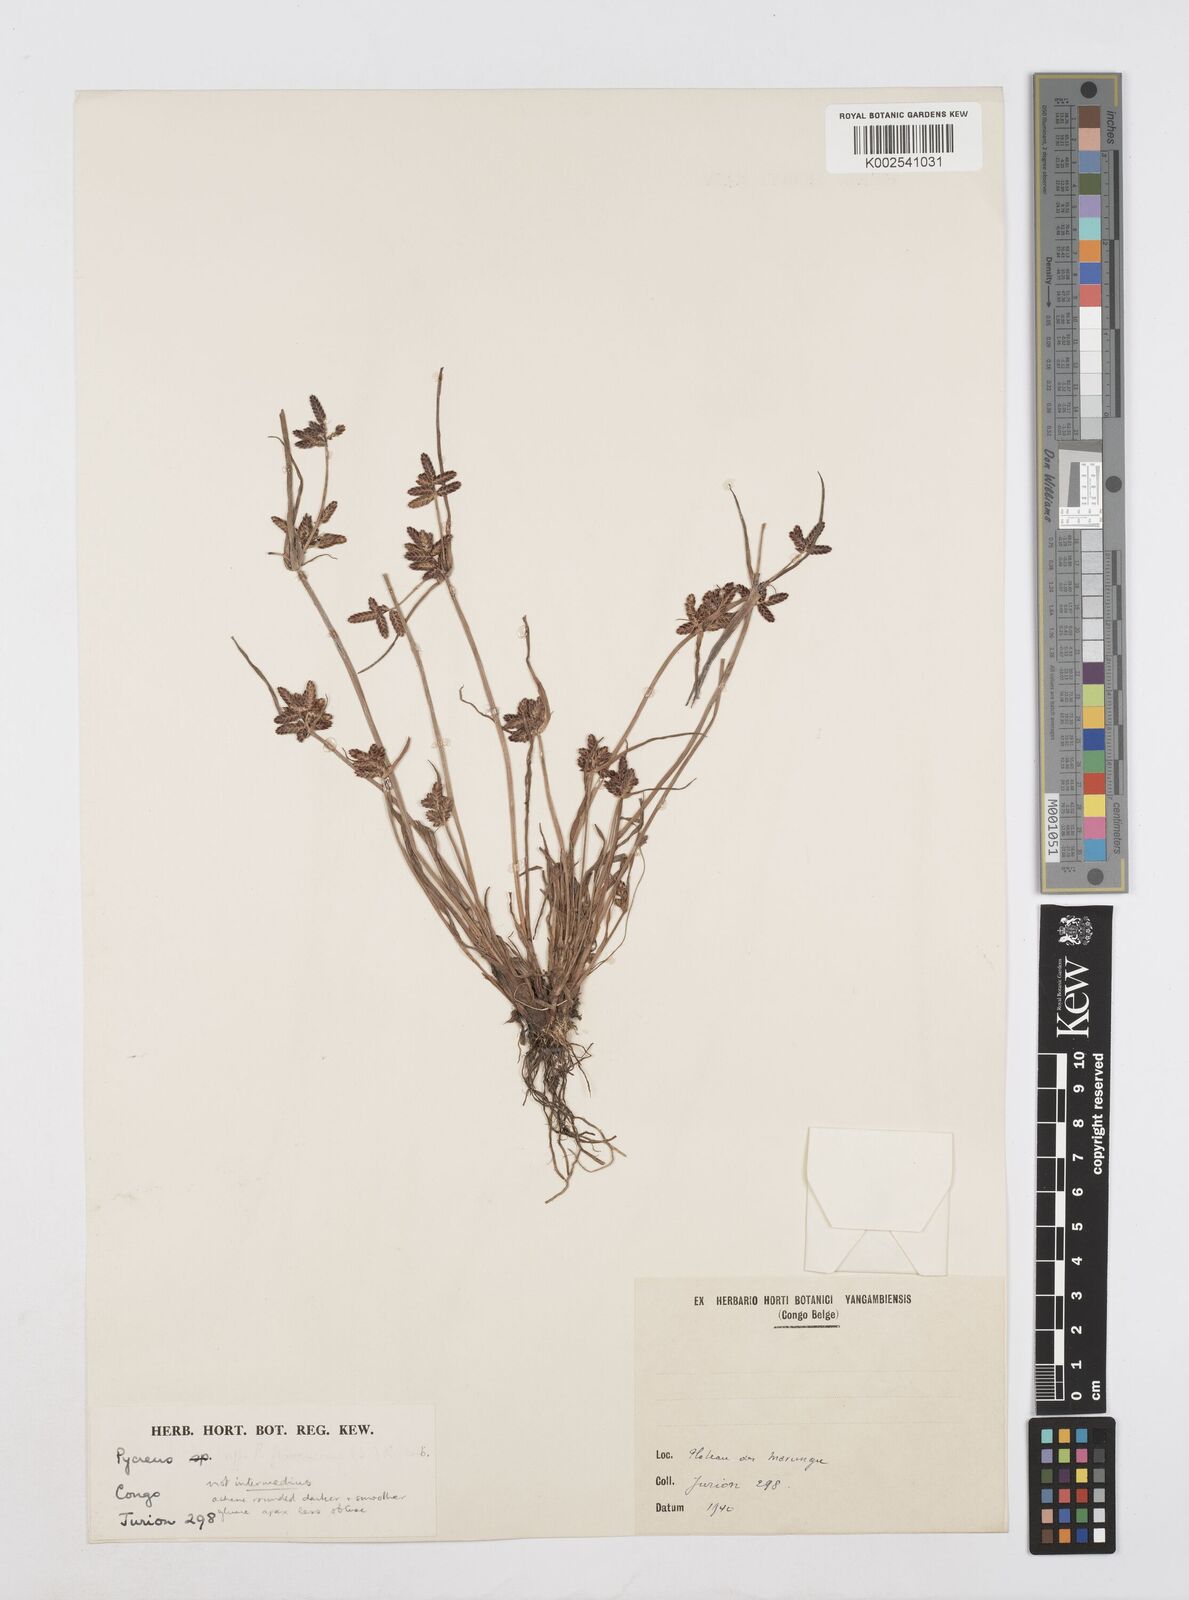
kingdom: Plantae
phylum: Tracheophyta
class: Liliopsida
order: Poales
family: Cyperaceae
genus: Cyperus
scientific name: Cyperus
